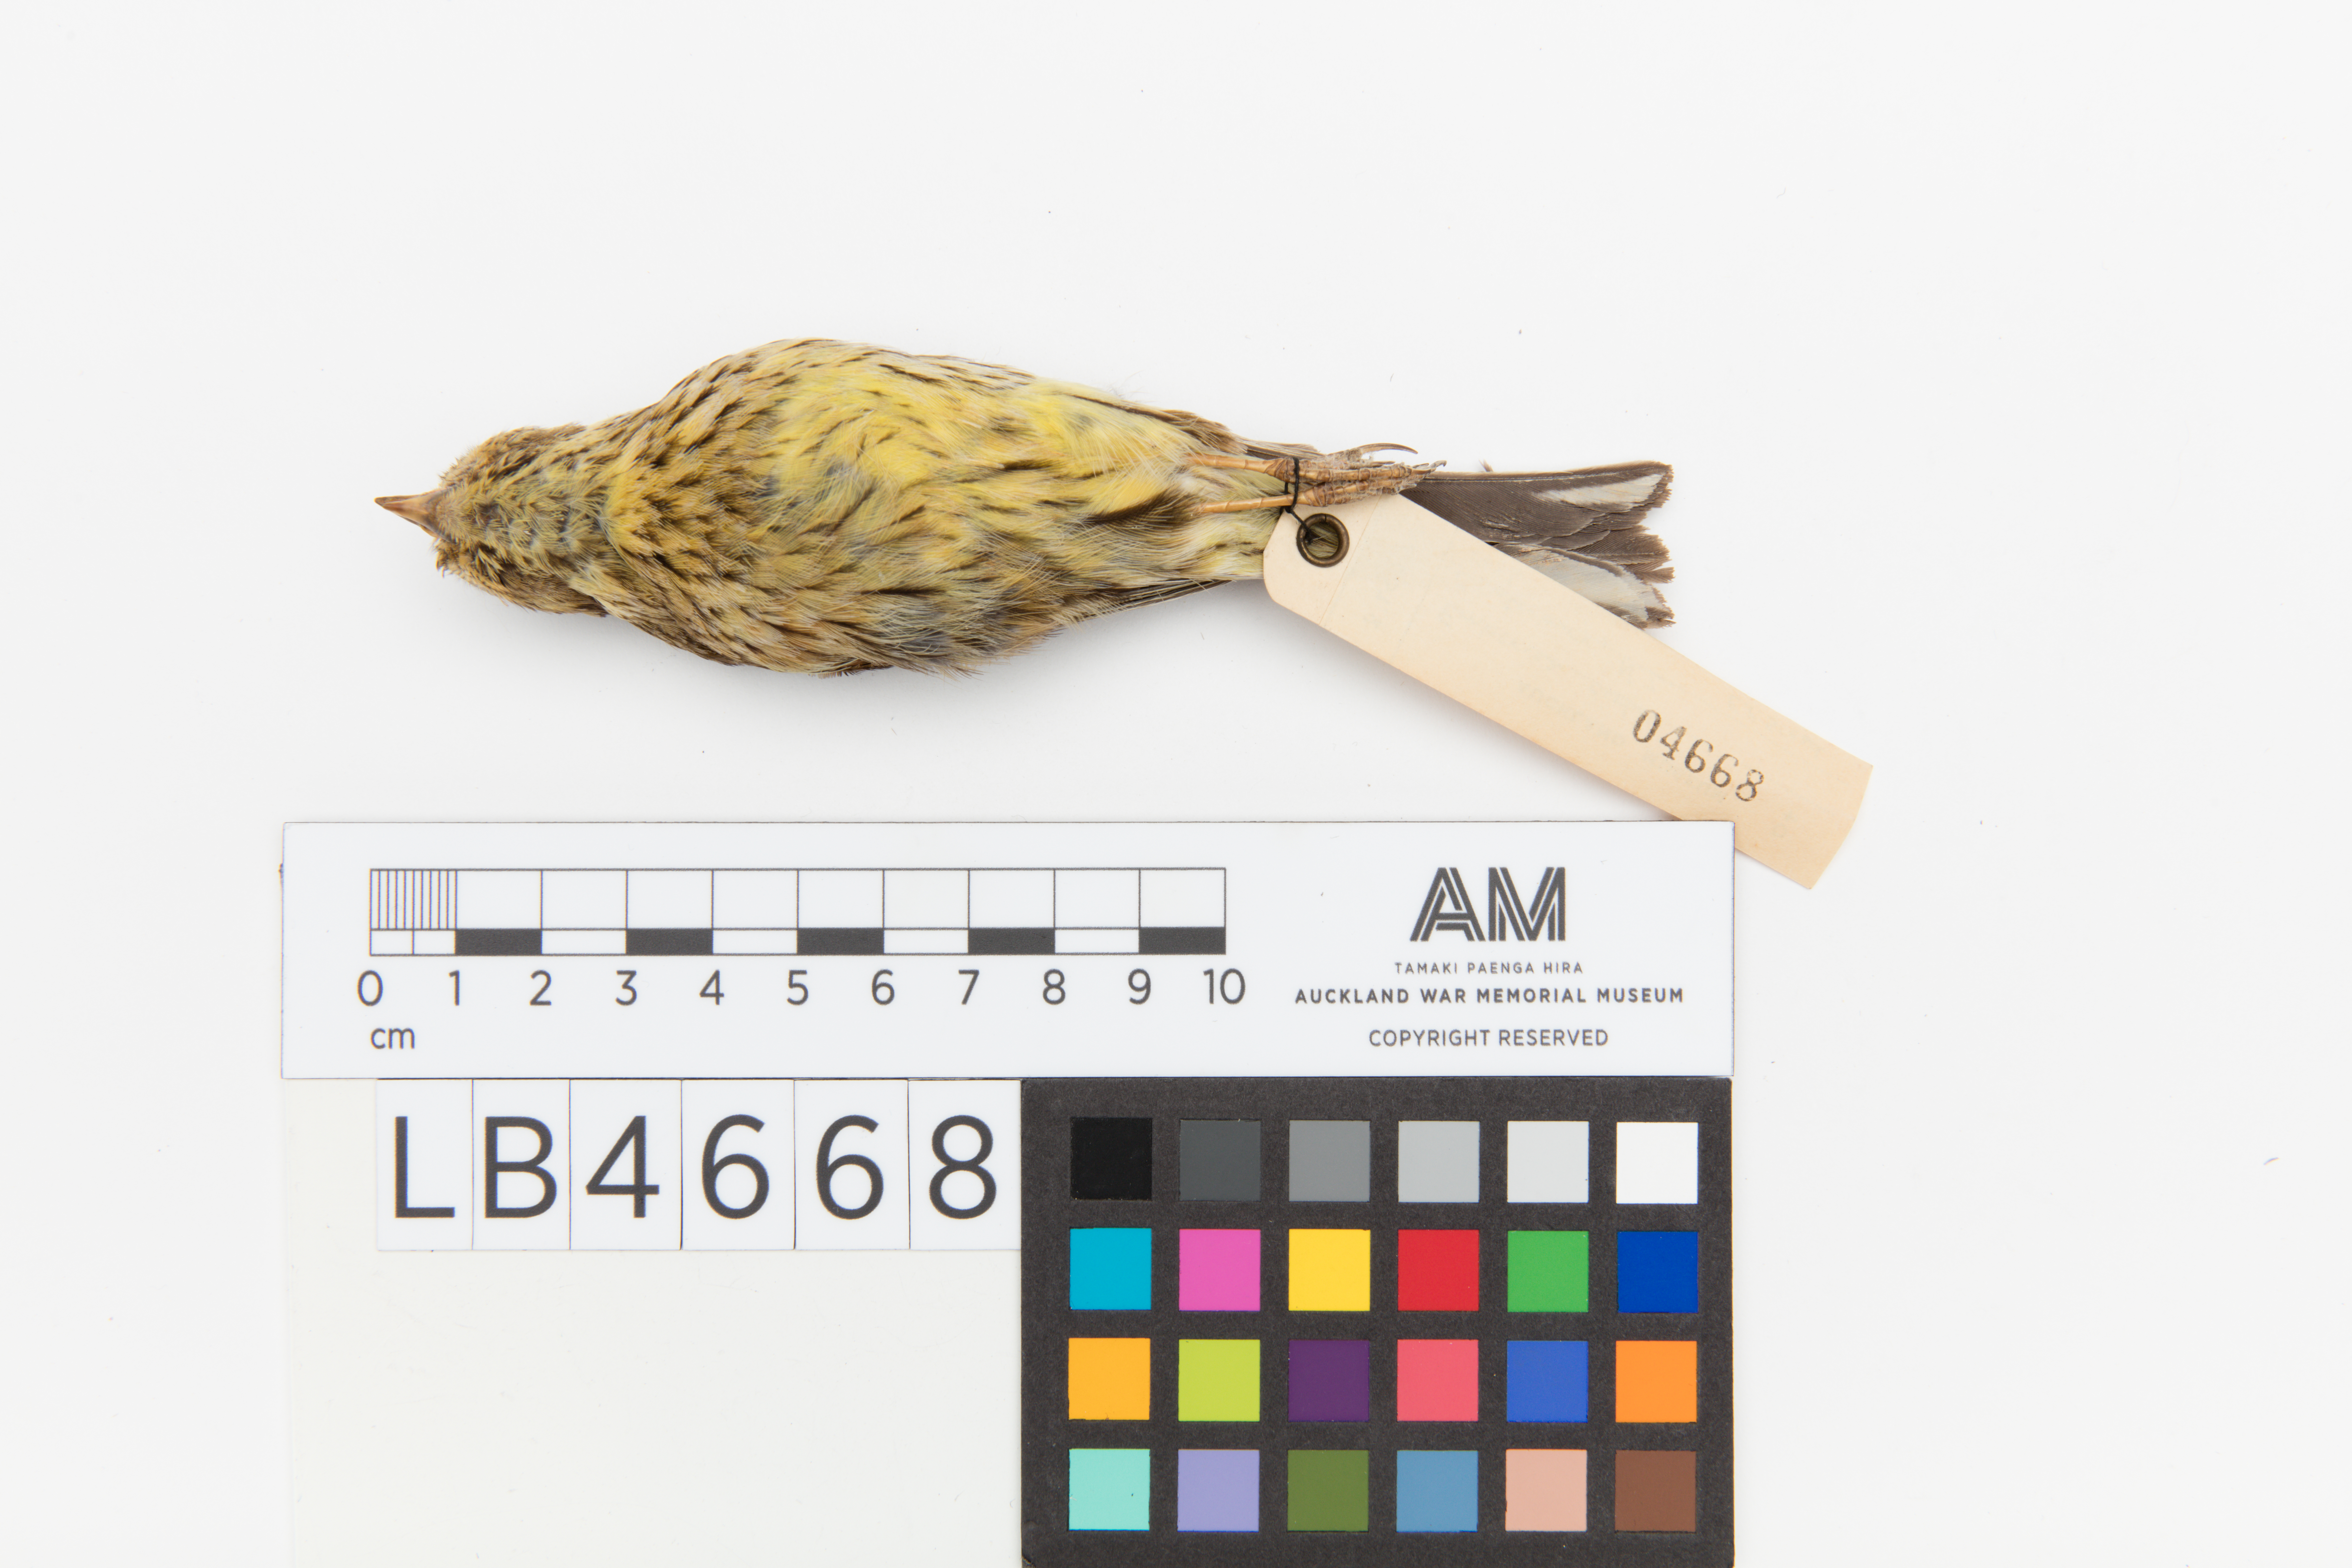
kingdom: Animalia
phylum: Chordata
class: Aves
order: Passeriformes
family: Emberizidae
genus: Emberiza
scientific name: Emberiza cirlus
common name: Cirl bunting
